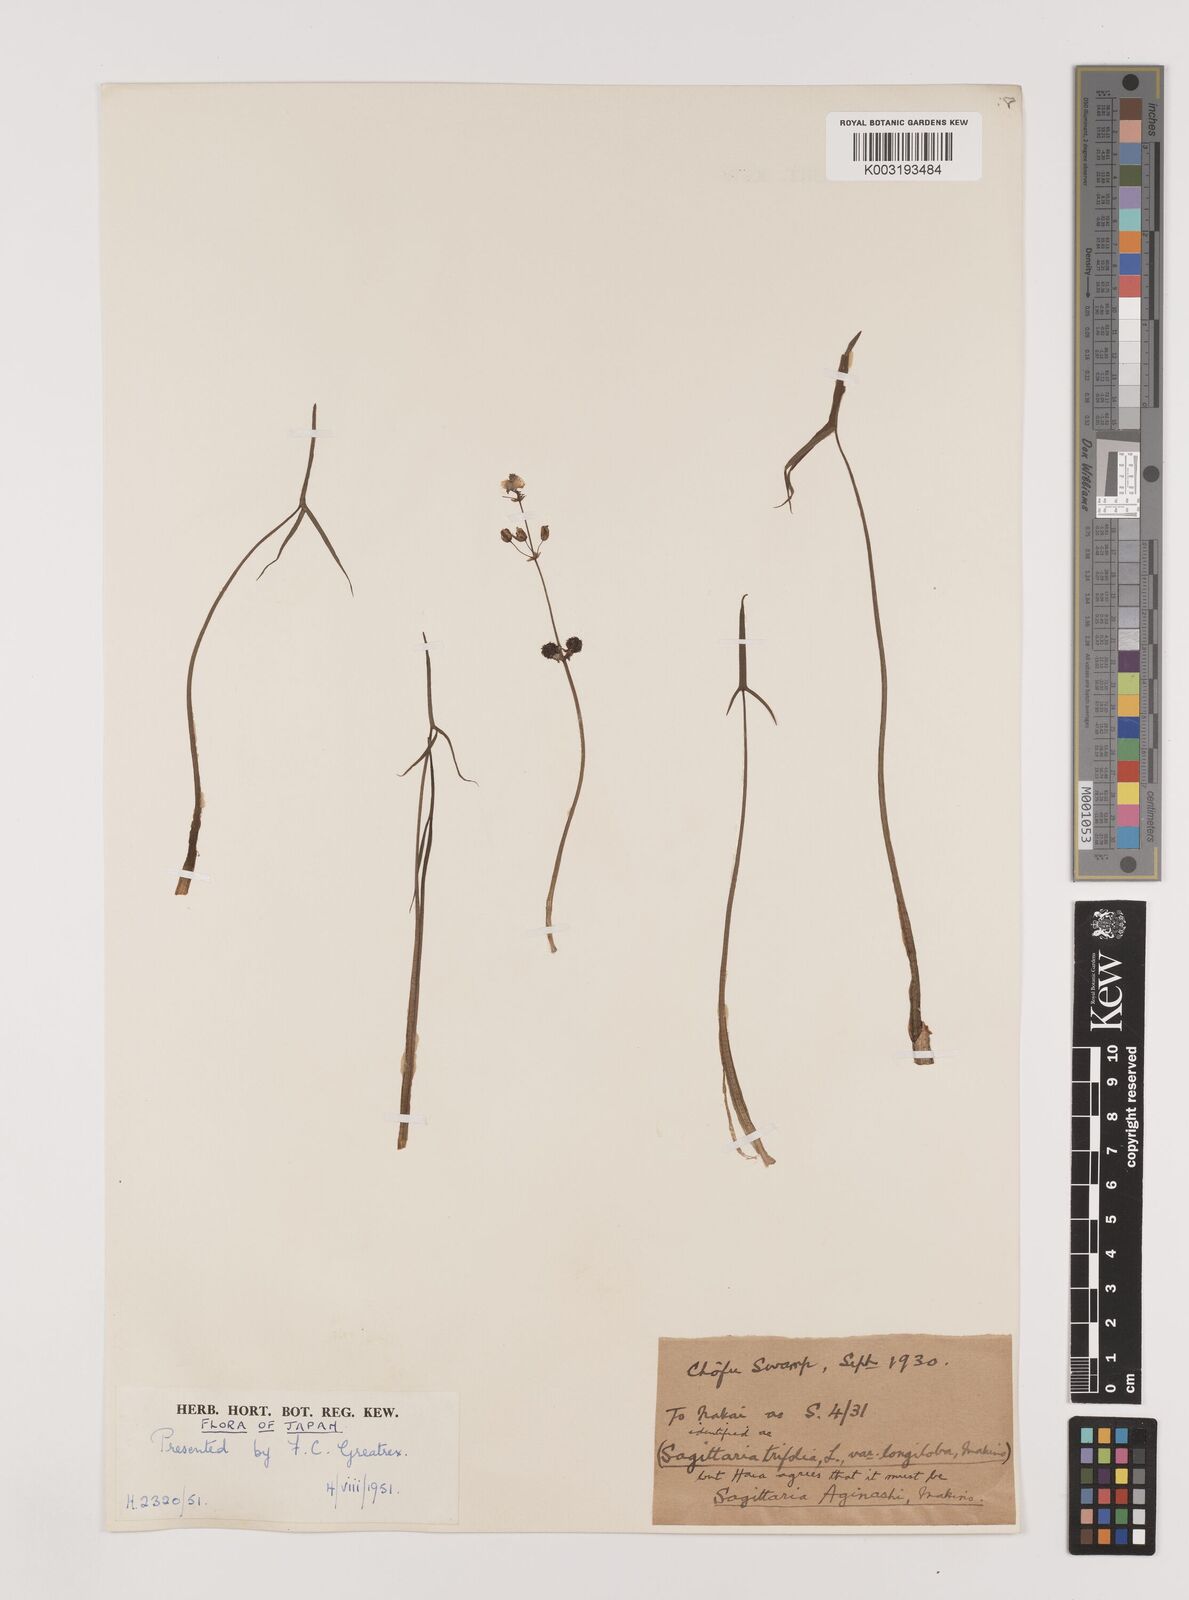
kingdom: Plantae
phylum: Tracheophyta
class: Liliopsida
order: Alismatales
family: Alismataceae
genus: Sagittaria
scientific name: Sagittaria aginashi
